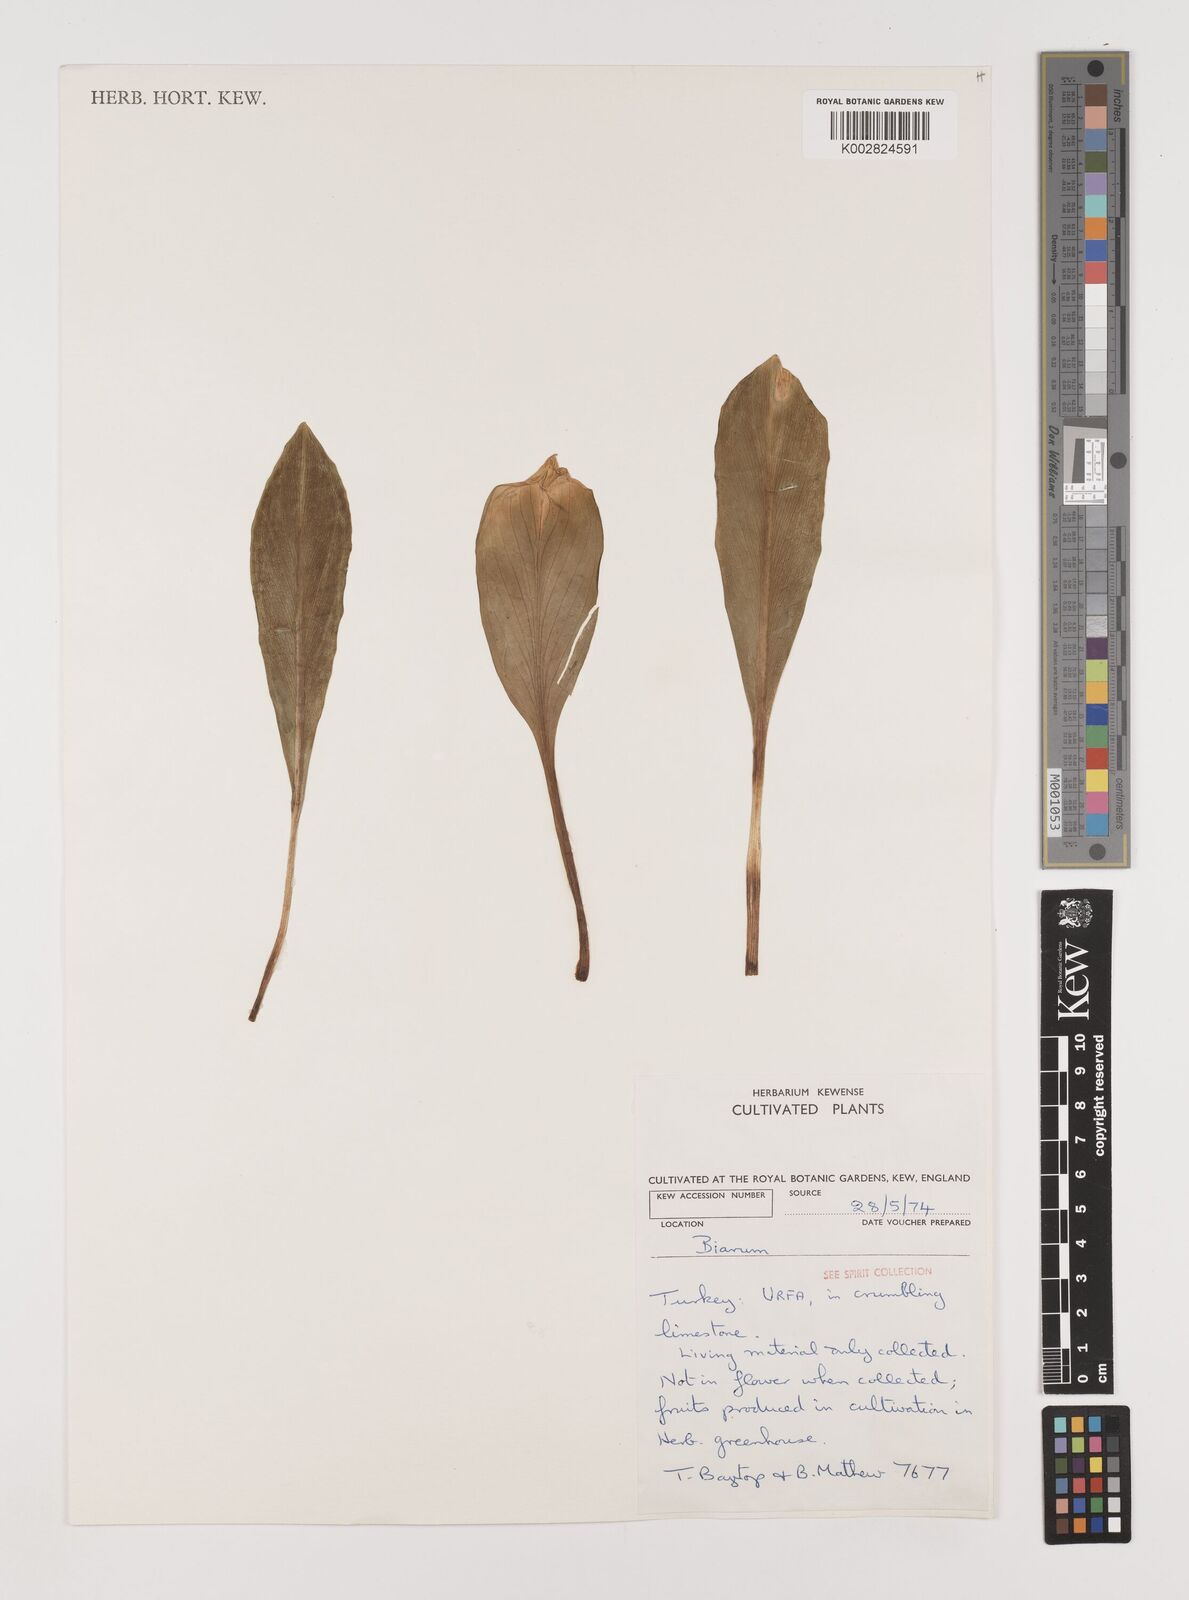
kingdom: Plantae
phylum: Tracheophyta
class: Liliopsida
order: Alismatales
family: Araceae
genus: Biarum
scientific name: Biarum
